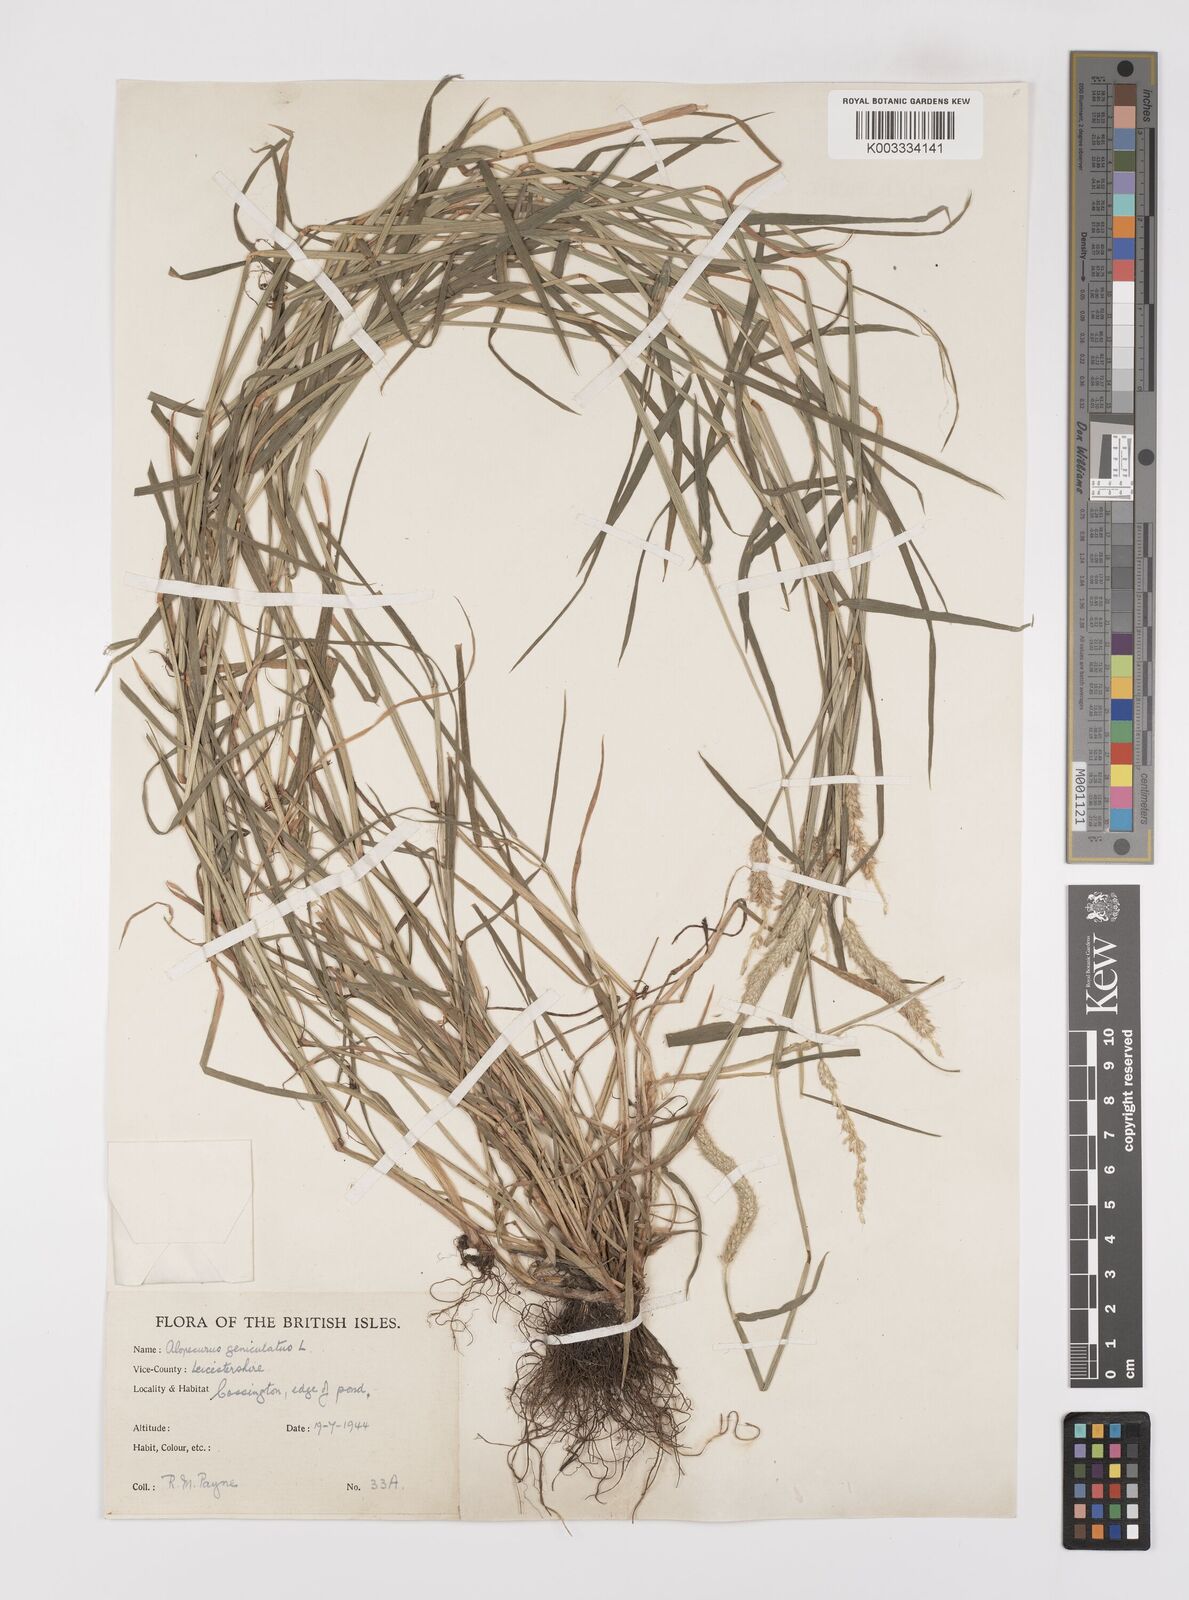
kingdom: Plantae
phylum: Tracheophyta
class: Liliopsida
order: Poales
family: Poaceae
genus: Alopecurus
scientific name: Alopecurus geniculatus
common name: Water foxtail
